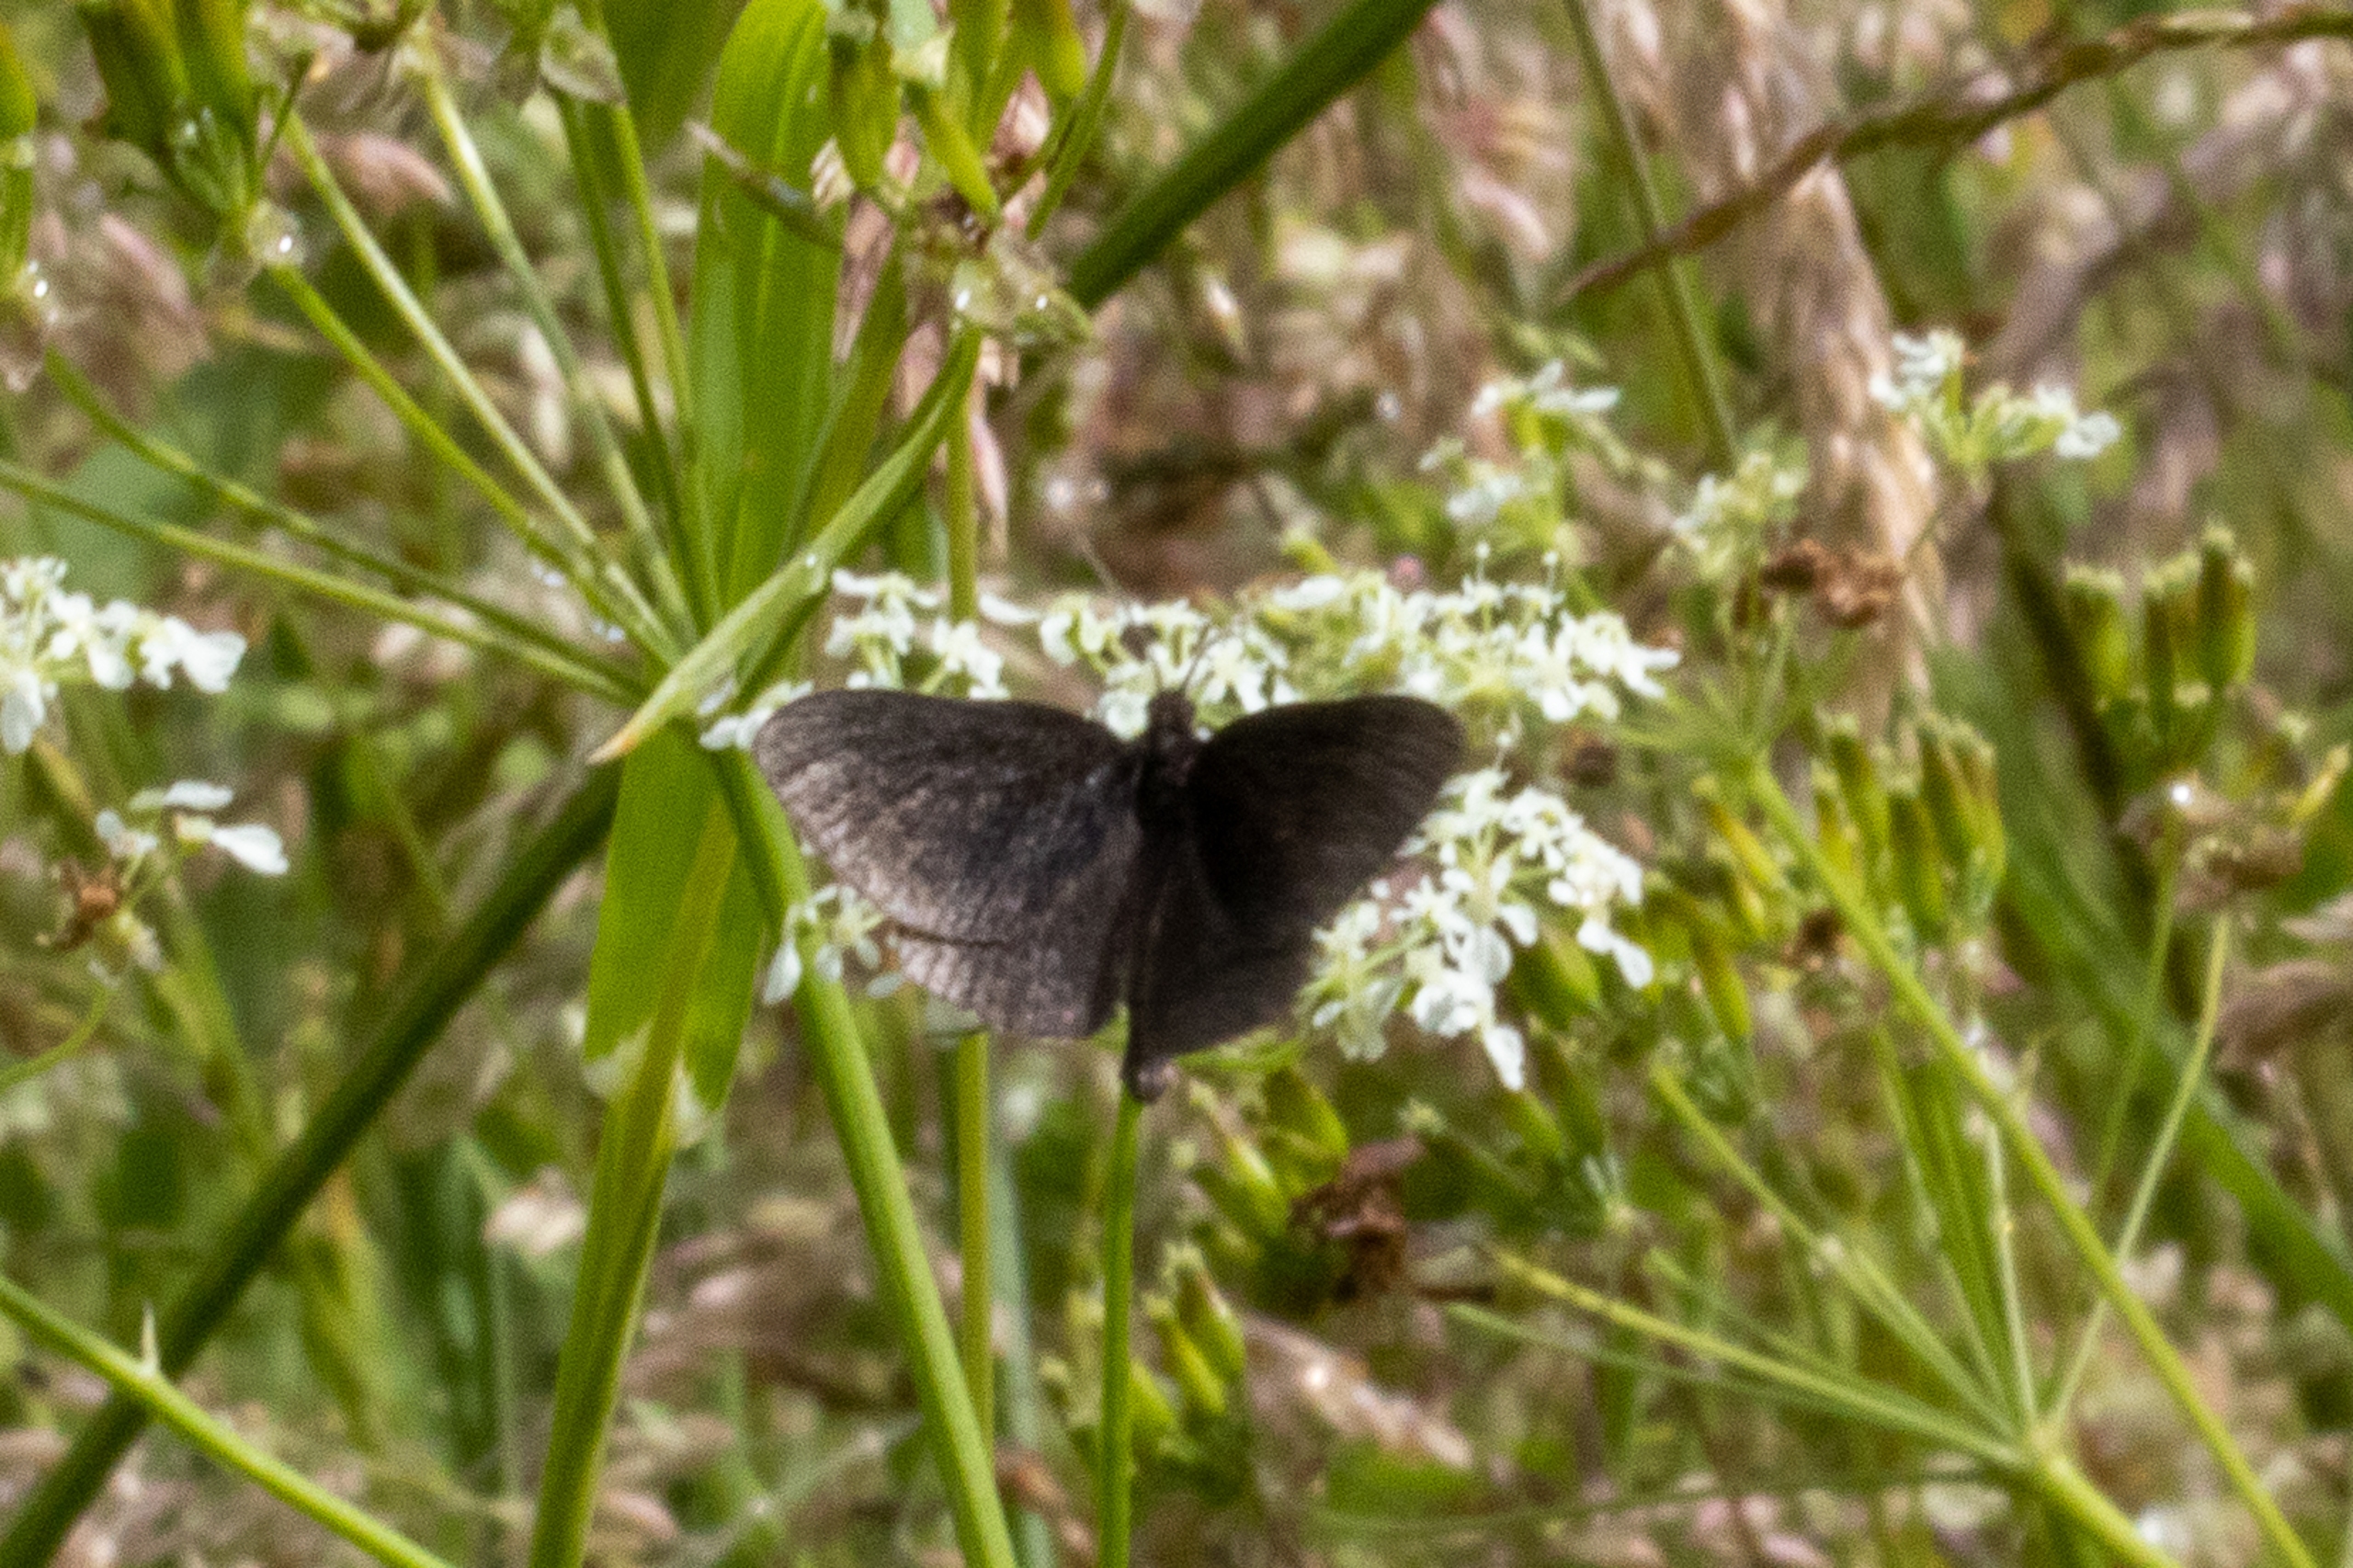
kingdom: Animalia
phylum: Arthropoda
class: Insecta
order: Lepidoptera
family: Geometridae
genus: Odezia
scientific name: Odezia atrata
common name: Sort måler
